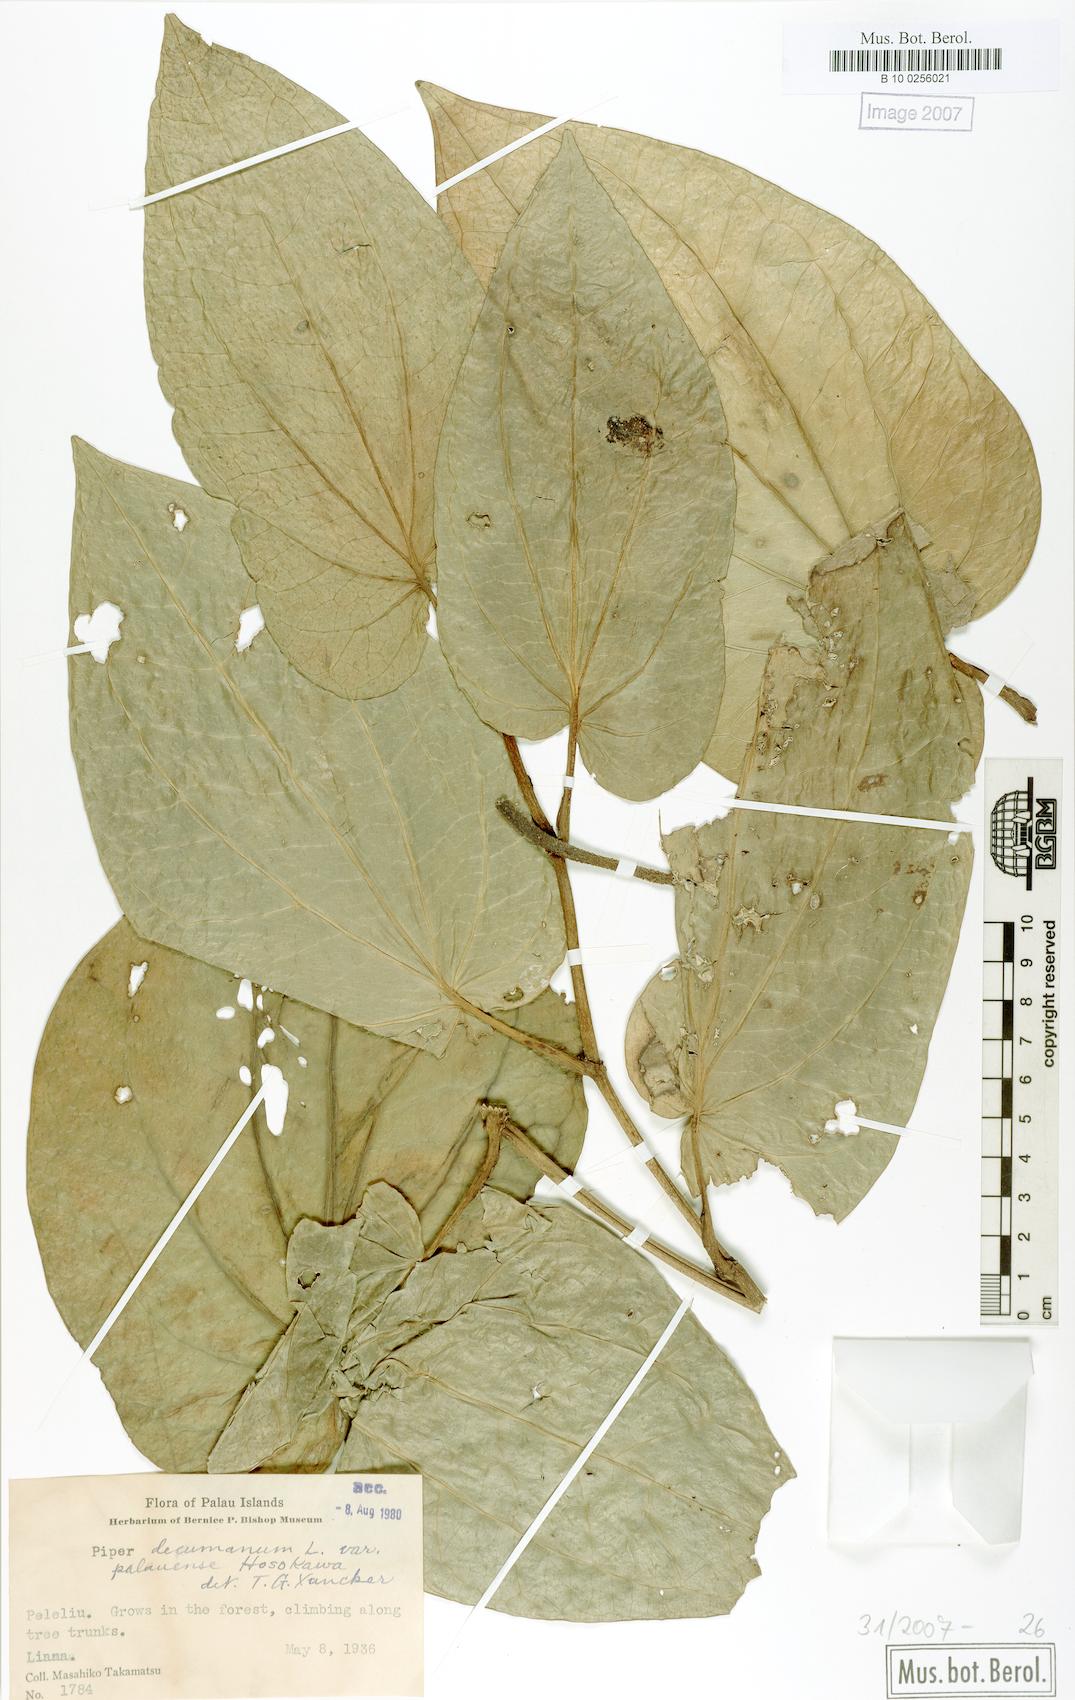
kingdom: Plantae
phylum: Tracheophyta
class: Magnoliopsida
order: Piperales
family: Piperaceae
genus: Piper
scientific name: Piper hosokawae
